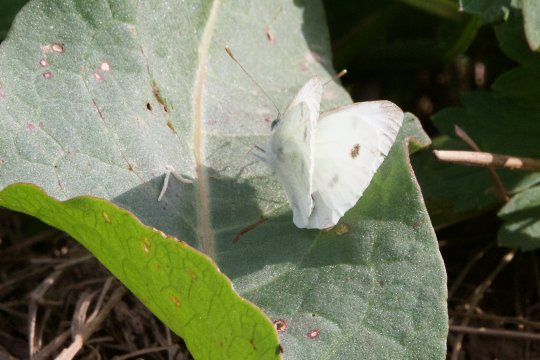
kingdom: Animalia
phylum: Arthropoda
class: Insecta
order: Lepidoptera
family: Pieridae
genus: Pieris
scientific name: Pieris rapae
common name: Cabbage White
